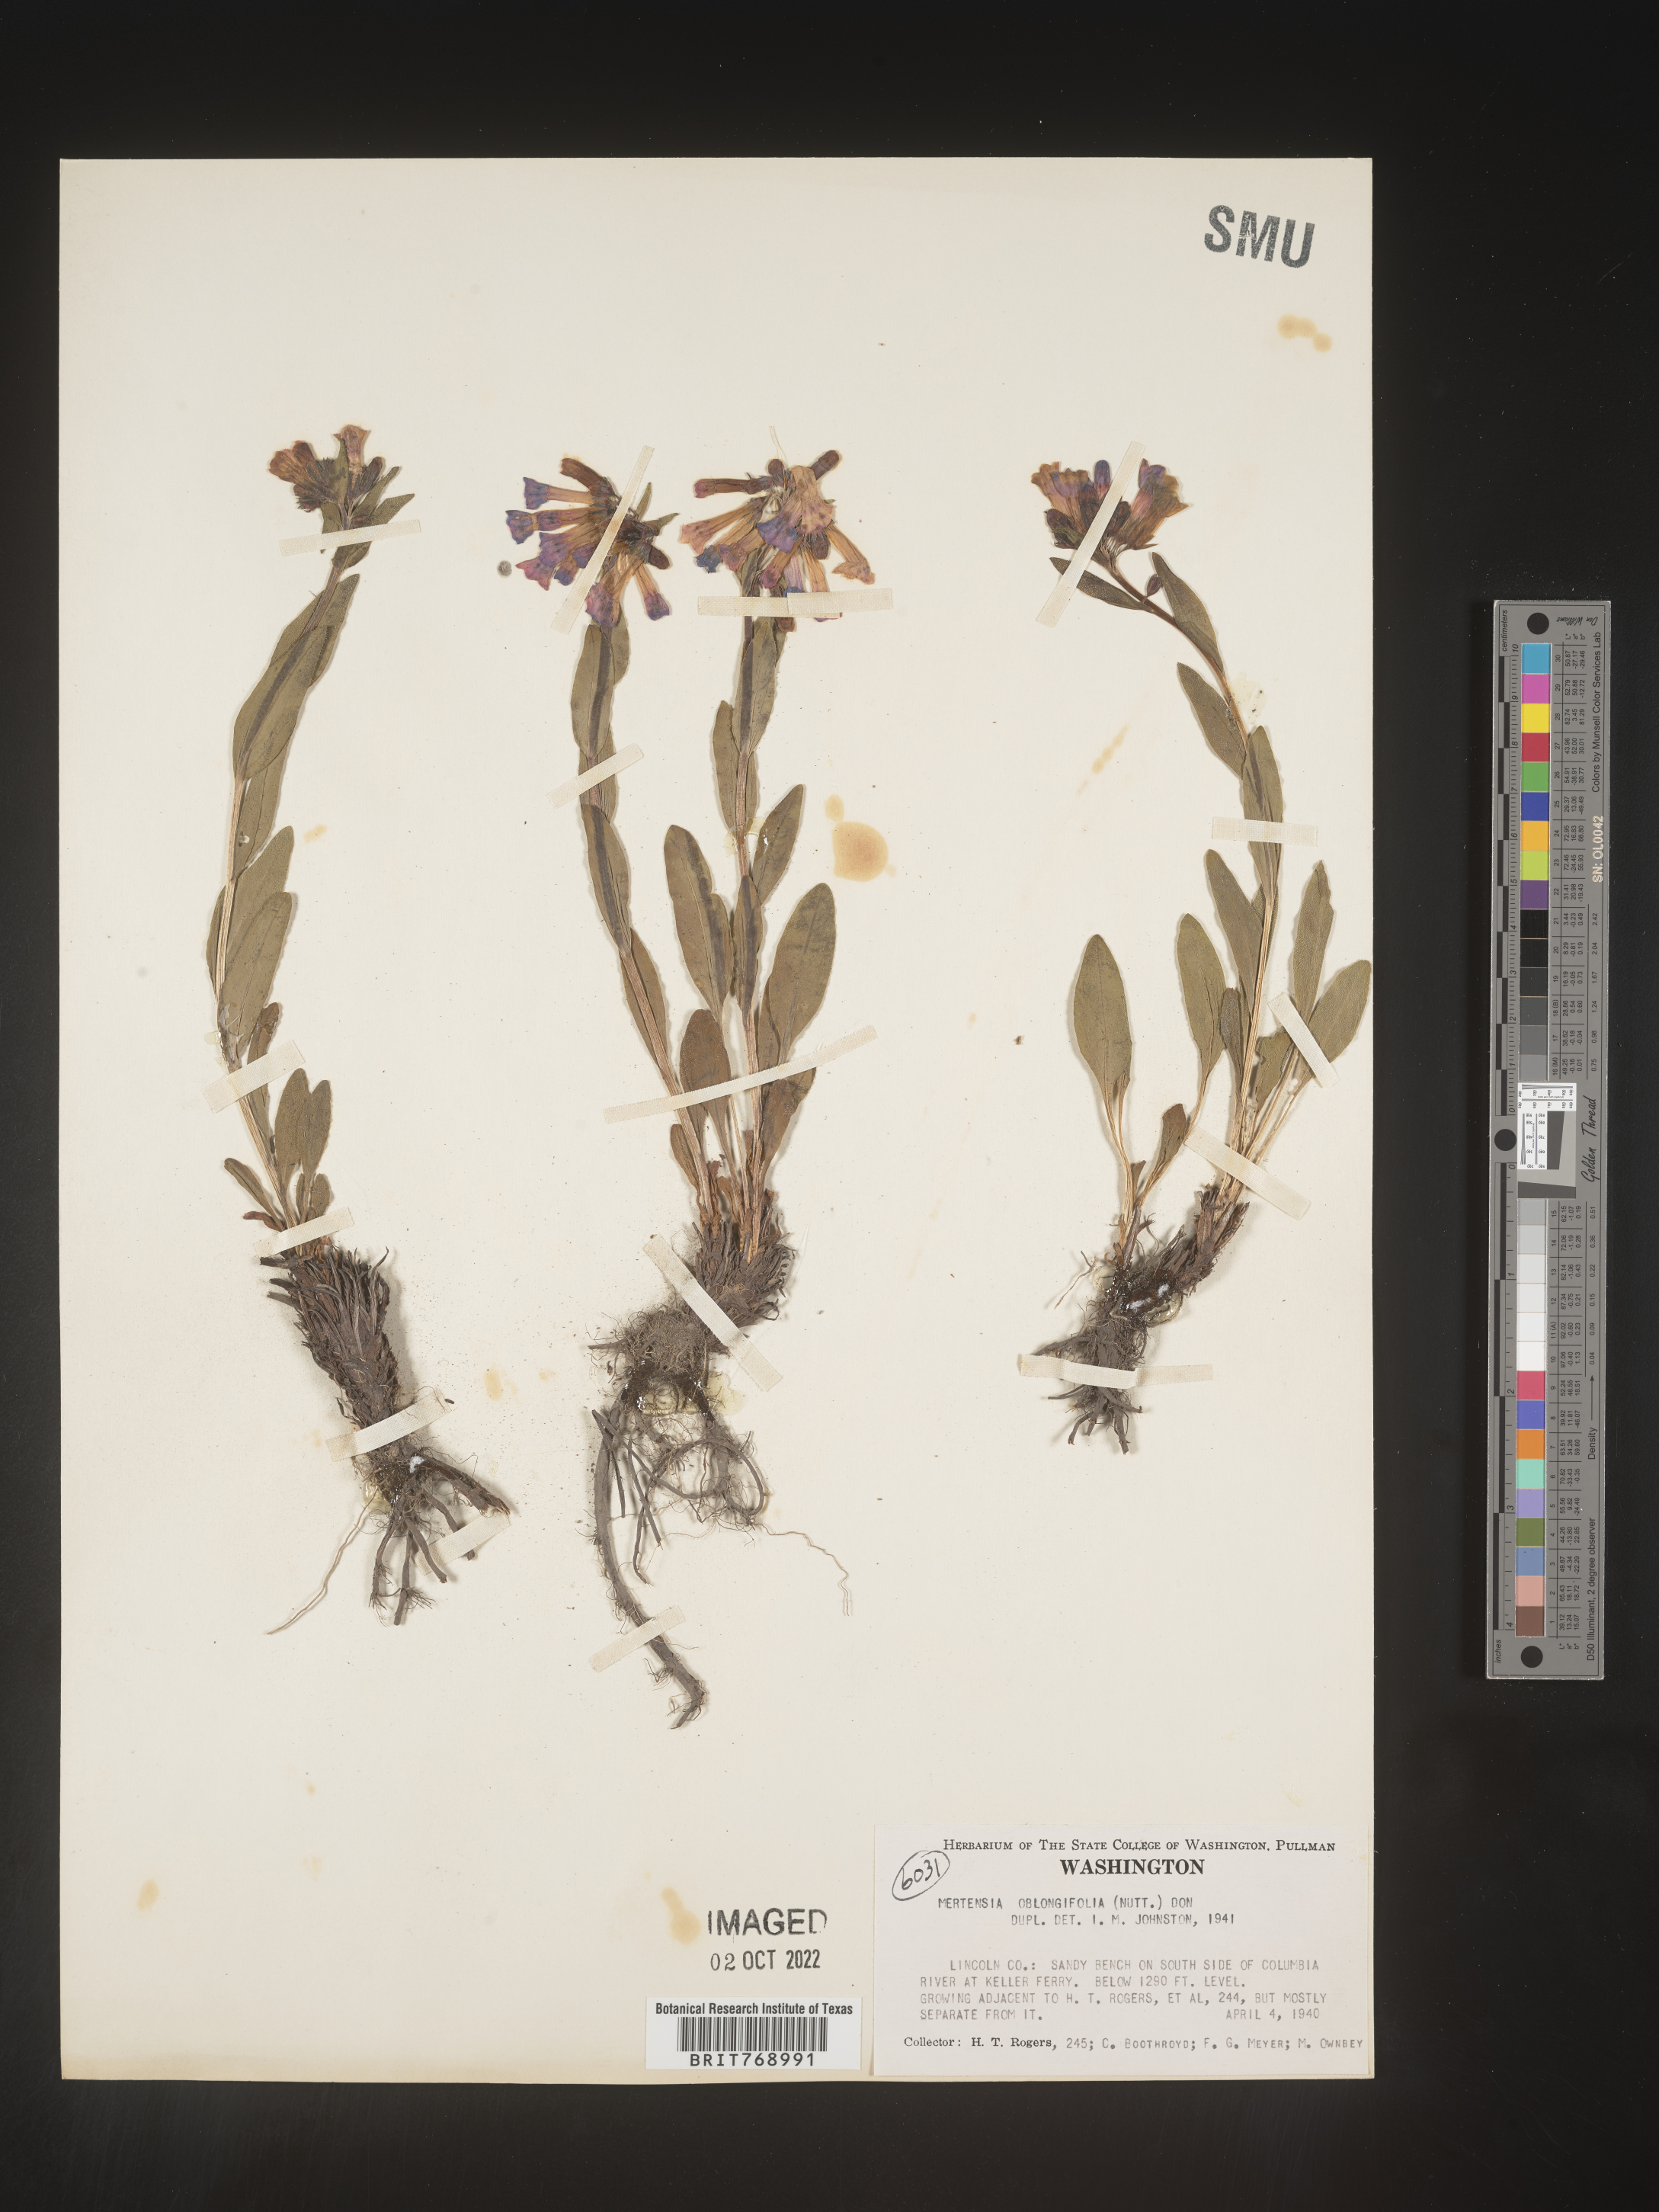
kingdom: Plantae
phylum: Tracheophyta
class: Magnoliopsida
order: Boraginales
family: Boraginaceae
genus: Mertensia
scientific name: Mertensia
